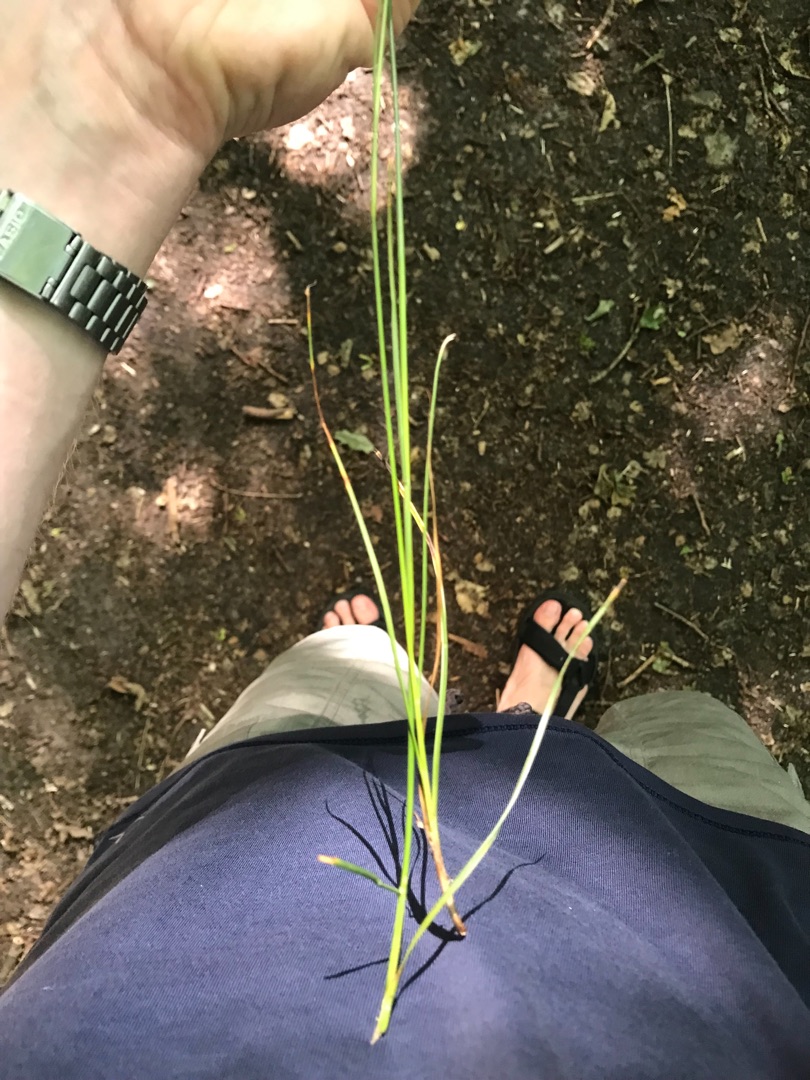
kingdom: Plantae
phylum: Tracheophyta
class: Liliopsida
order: Poales
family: Juncaceae
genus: Juncus
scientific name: Juncus compressus
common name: Fladstrået siv
